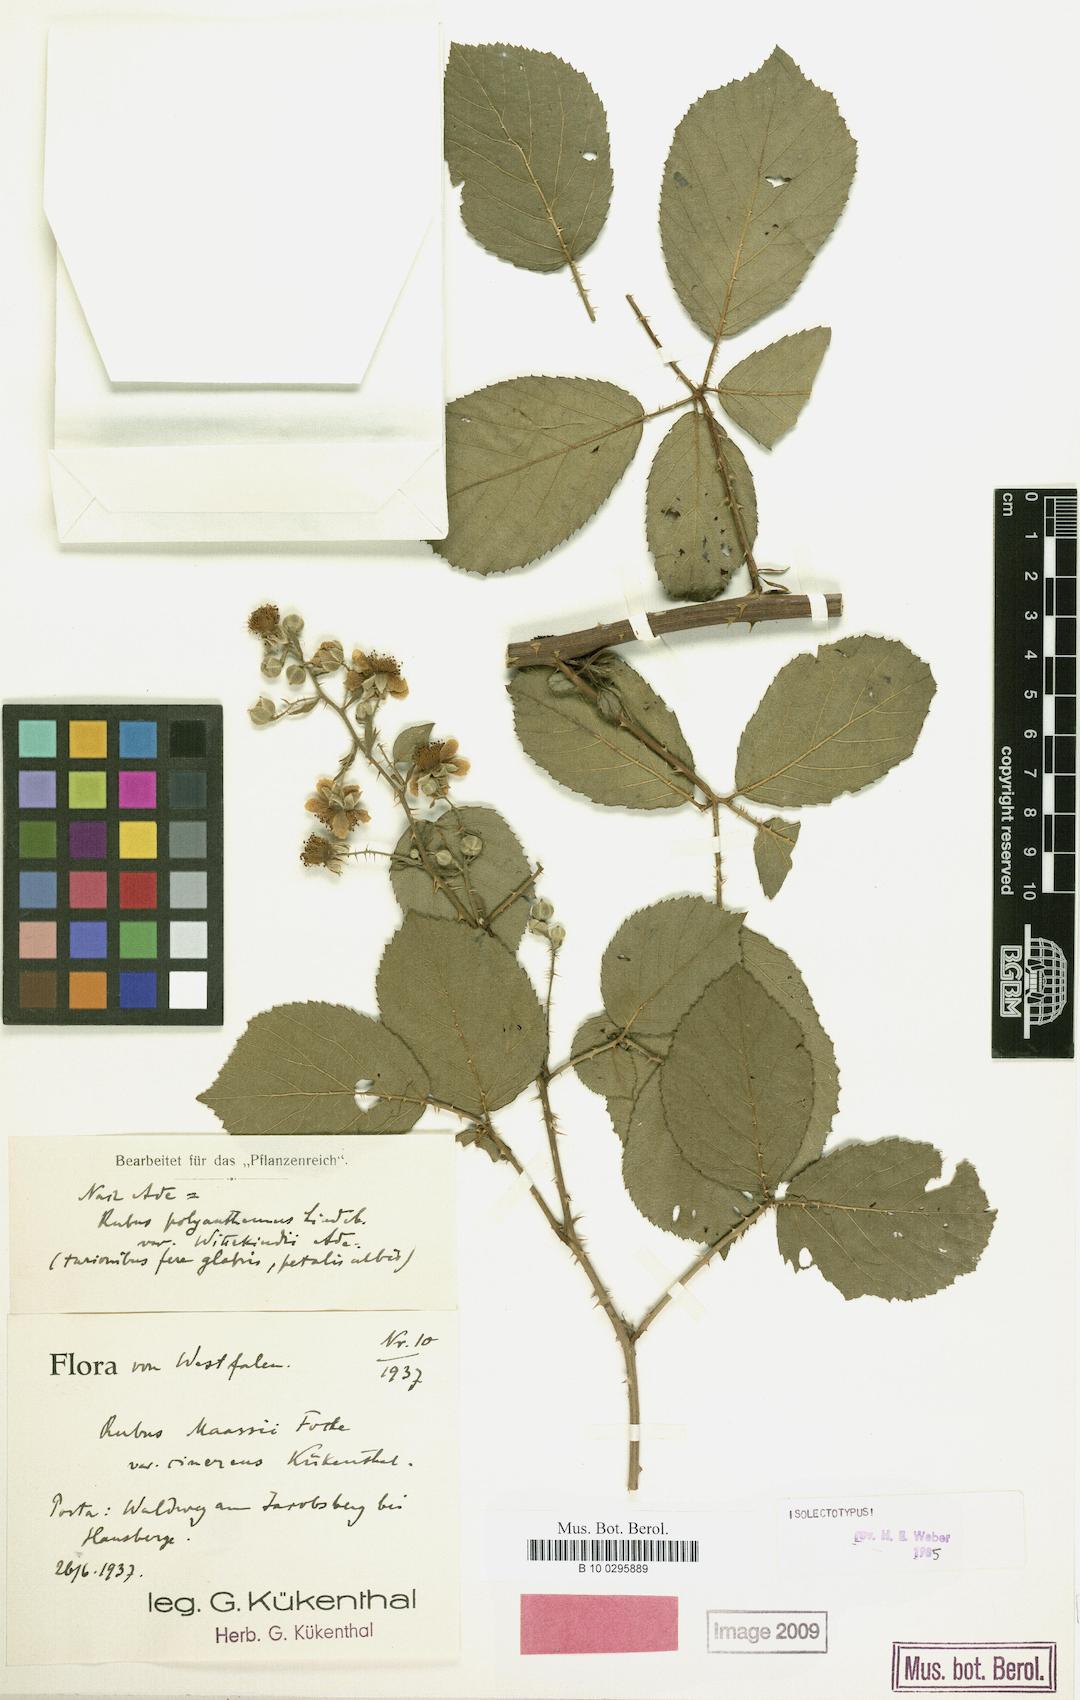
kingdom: Plantae
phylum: Tracheophyta
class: Magnoliopsida
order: Rosales
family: Rosaceae
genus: Rubus
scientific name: Rubus egregius
